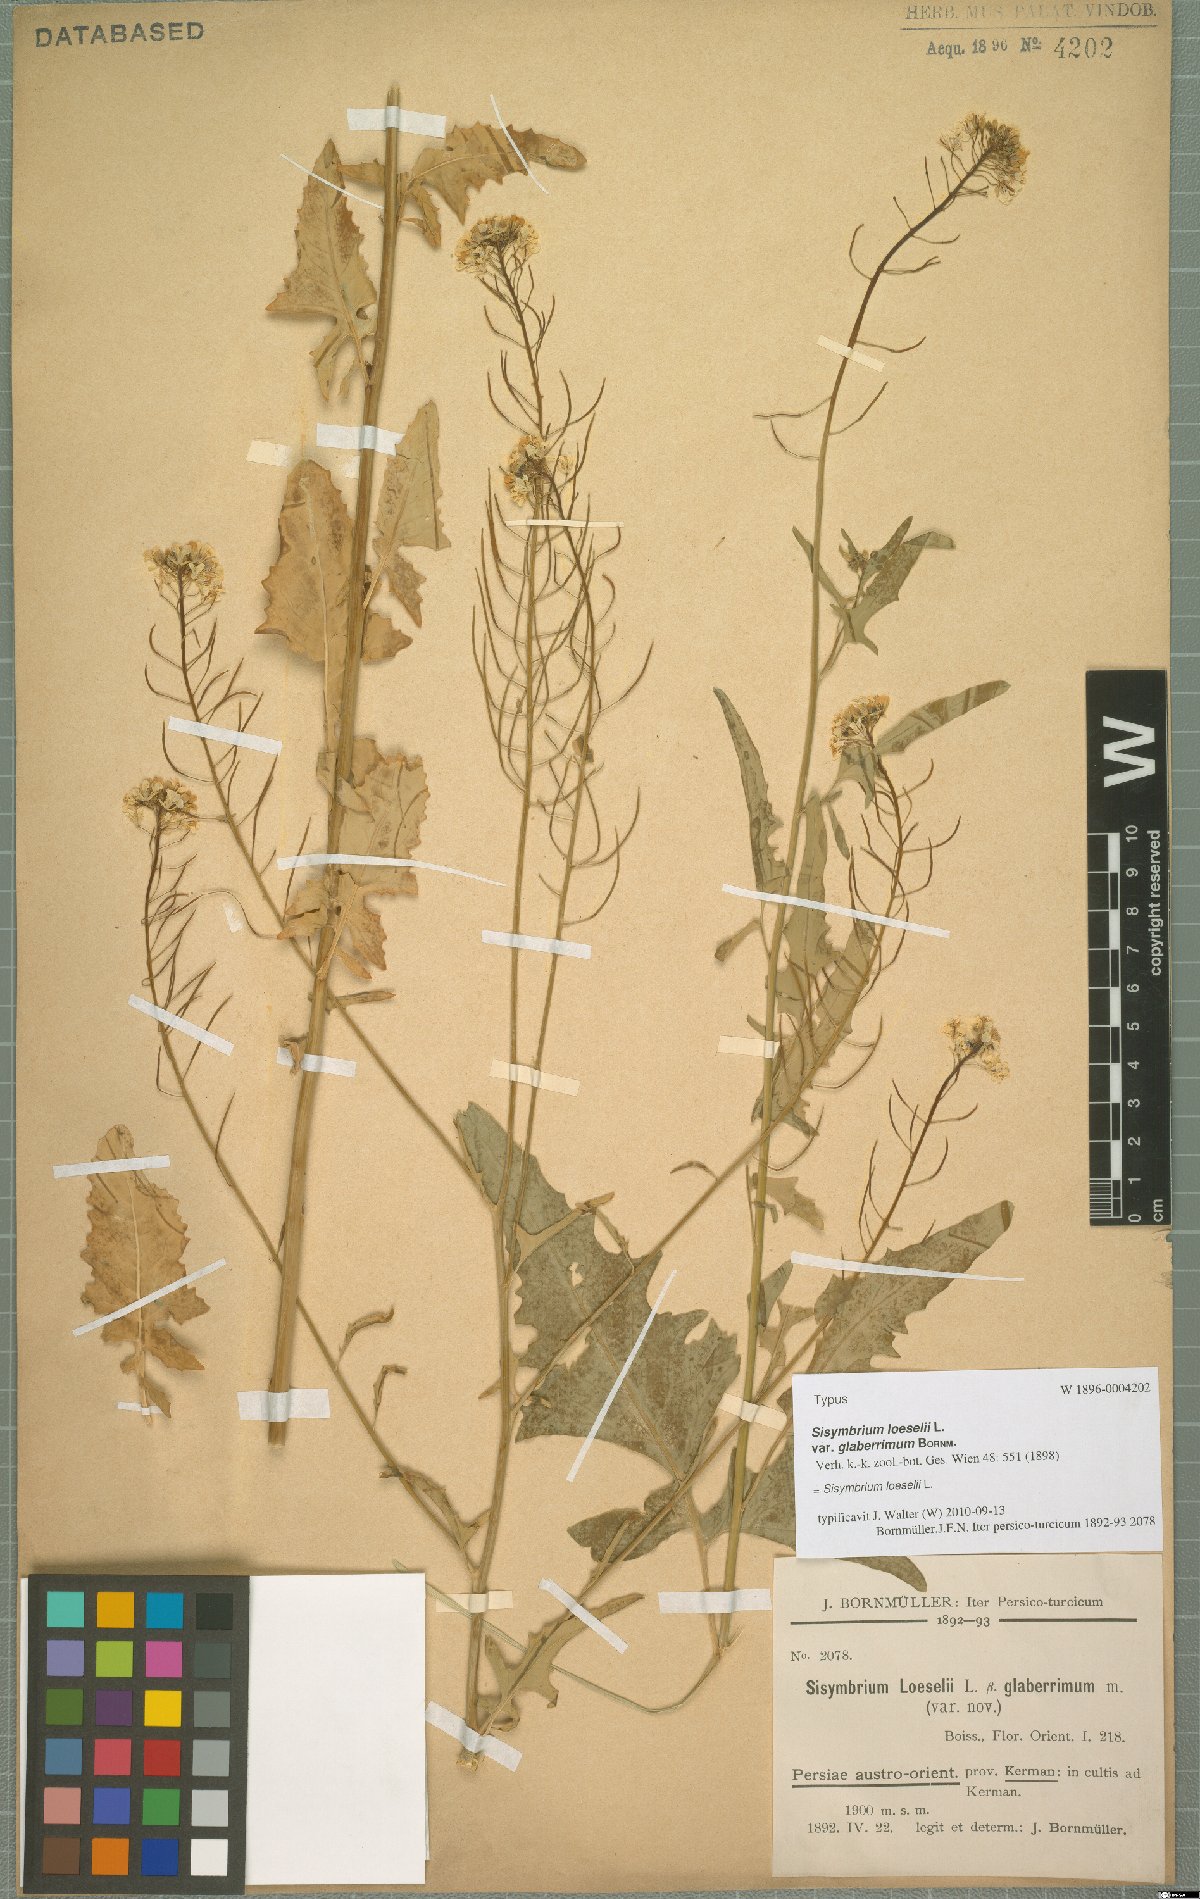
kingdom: Plantae
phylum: Tracheophyta
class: Magnoliopsida
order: Brassicales
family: Brassicaceae
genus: Sisymbrium
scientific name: Sisymbrium loeselii
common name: False london-rocket
